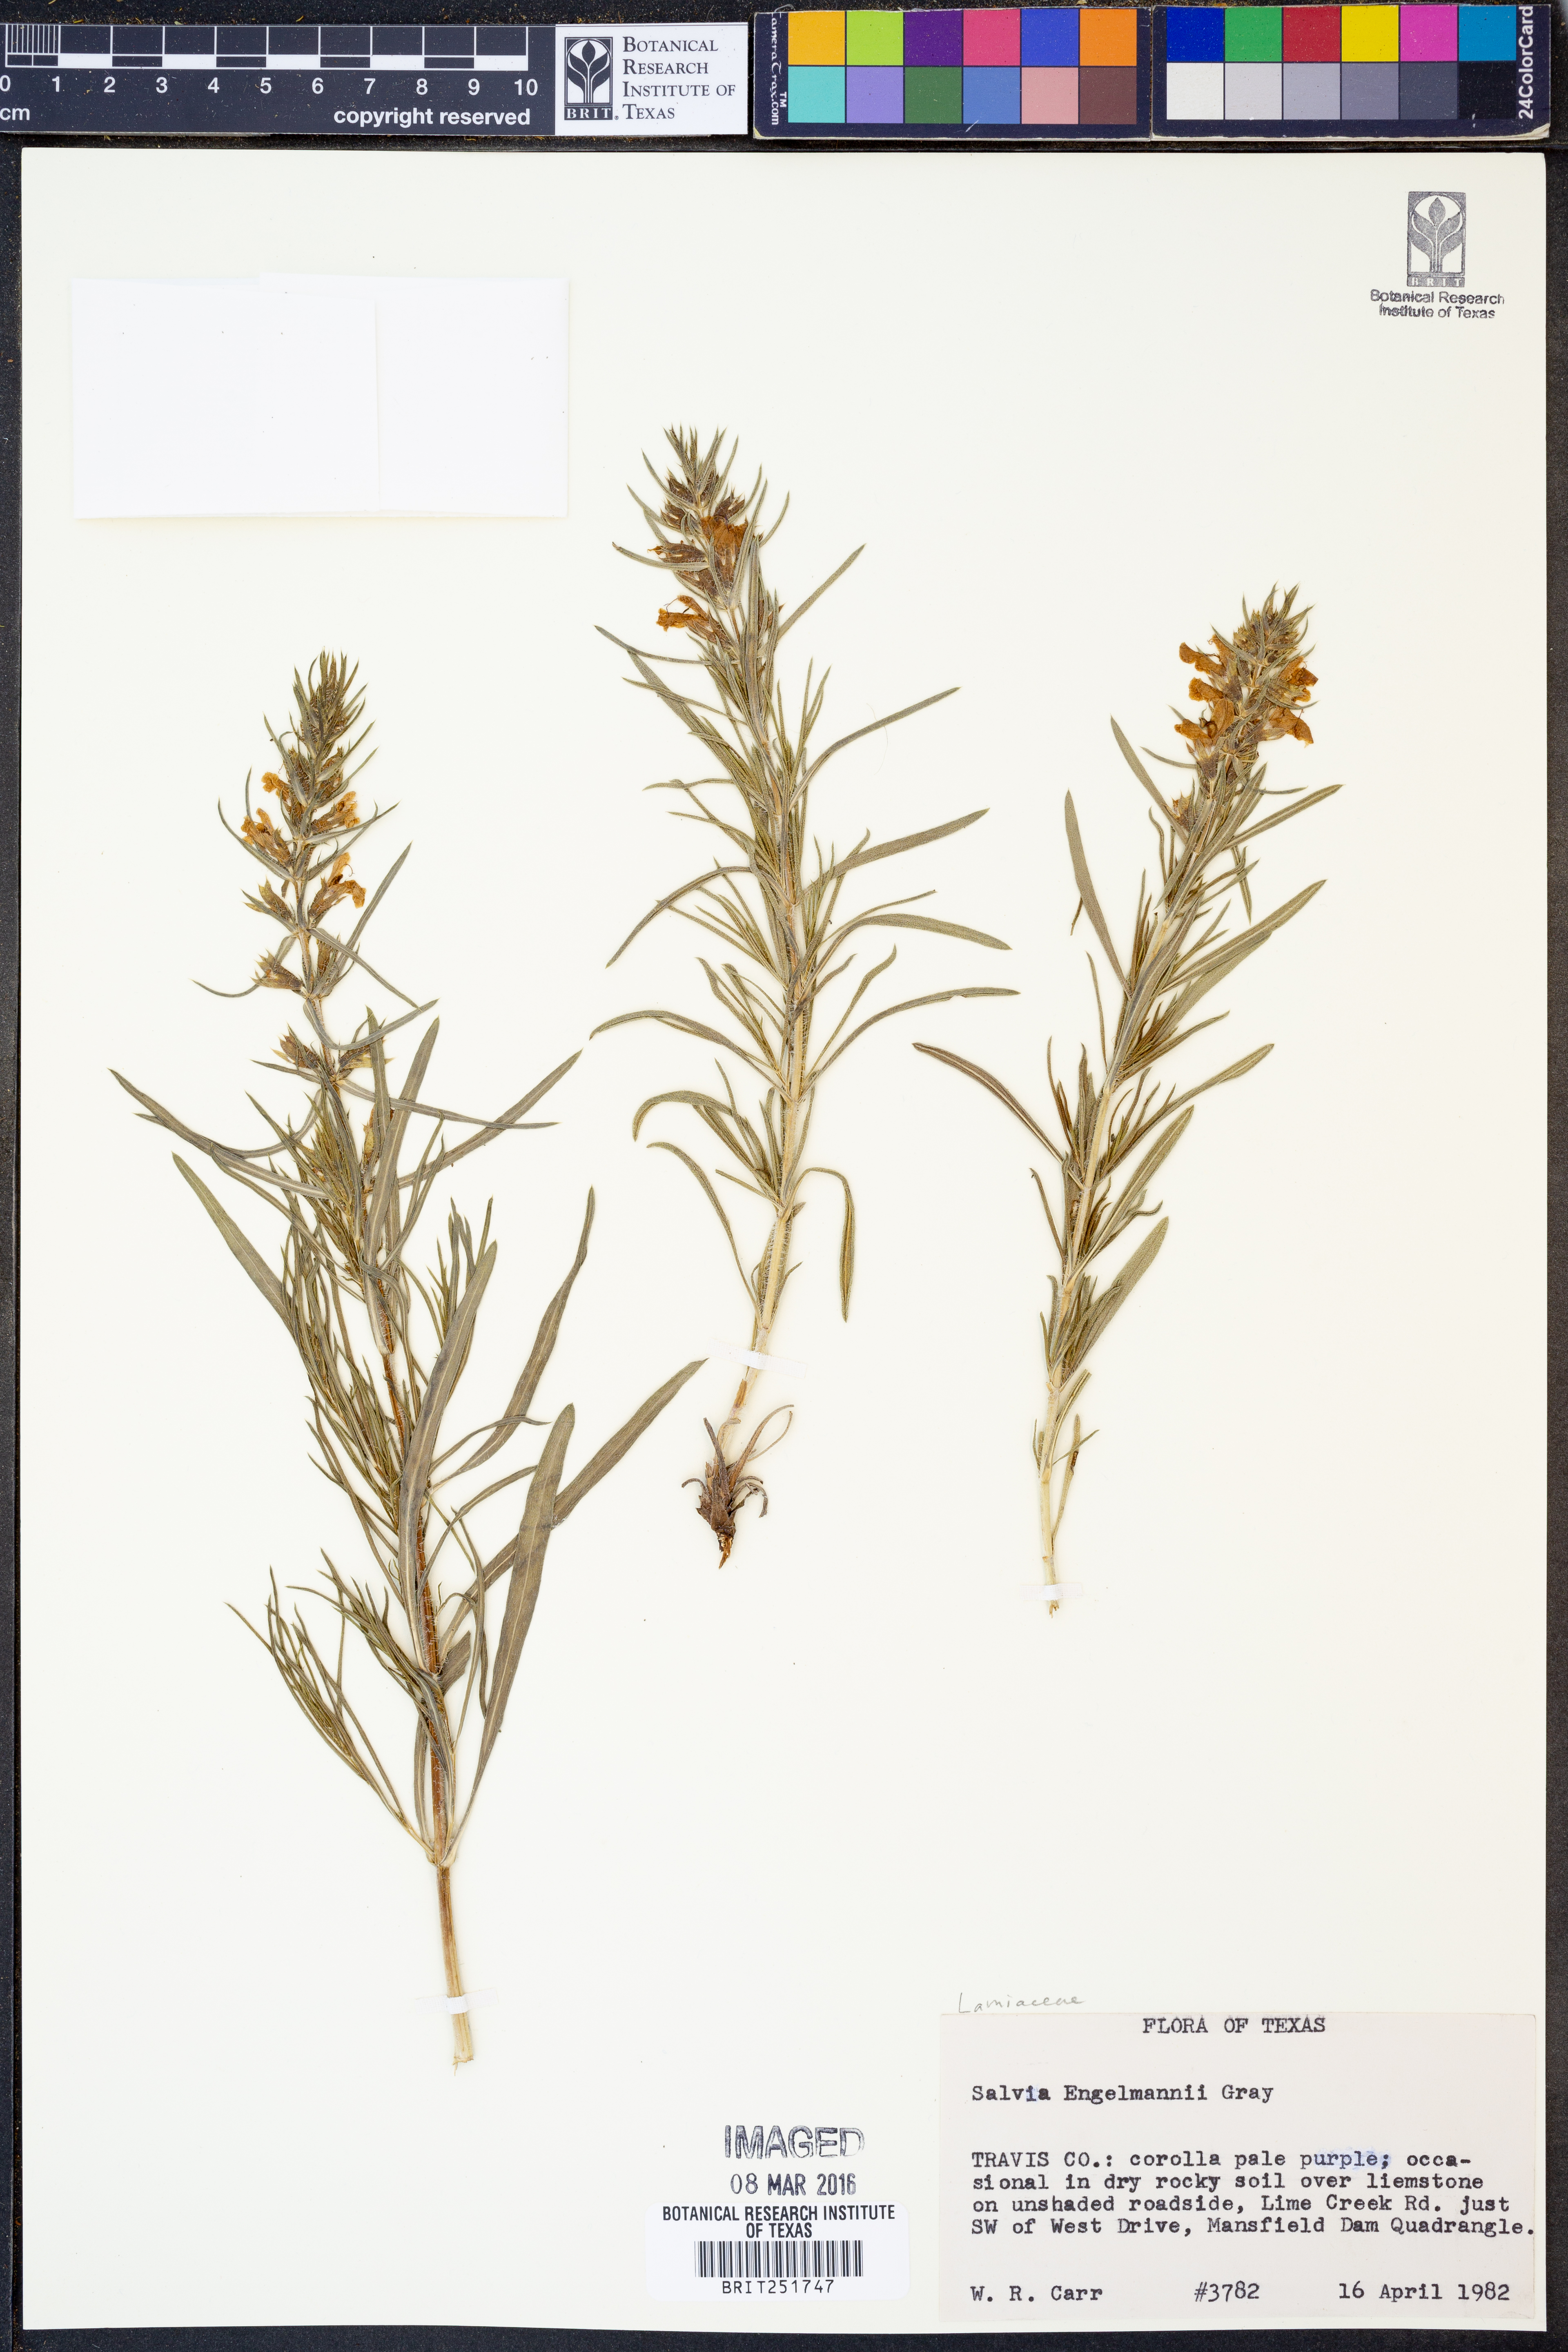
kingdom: Plantae
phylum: Tracheophyta
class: Magnoliopsida
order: Lamiales
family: Lamiaceae
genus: Salvia
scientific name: Salvia engelmannii
